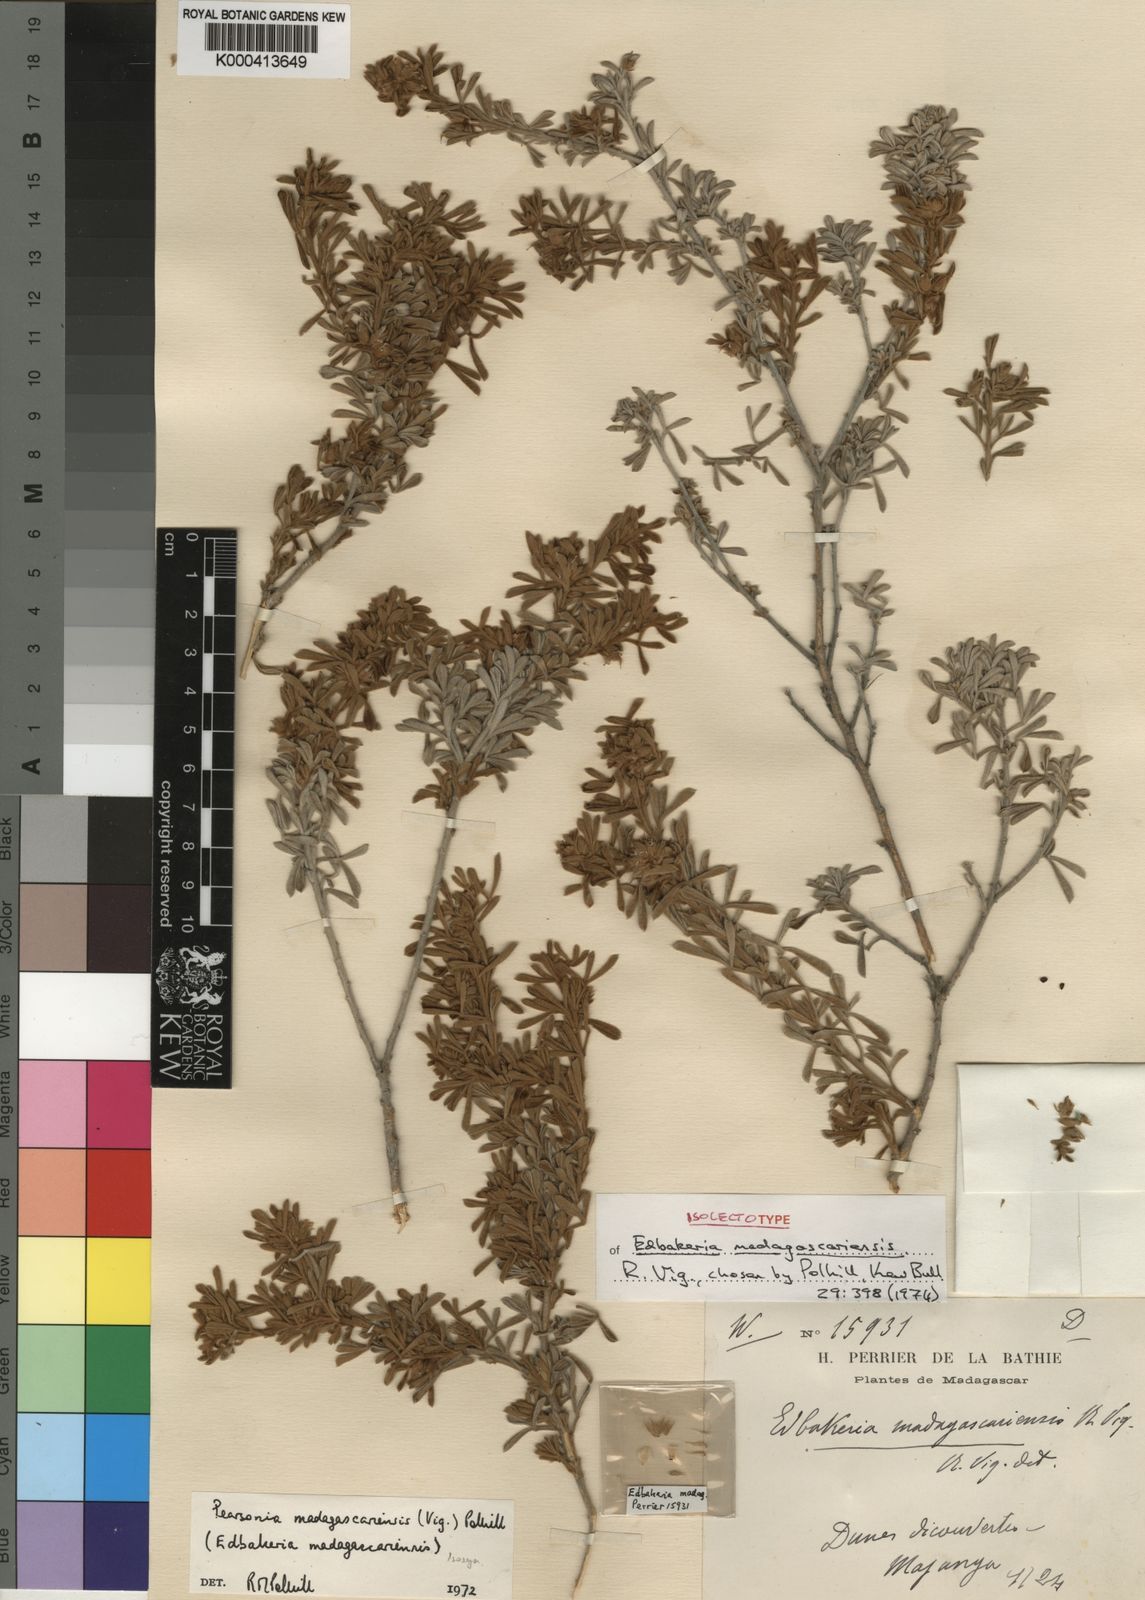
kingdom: Plantae
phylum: Tracheophyta
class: Magnoliopsida
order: Fabales
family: Fabaceae
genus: Pearsonia
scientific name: Pearsonia madagascariensis
